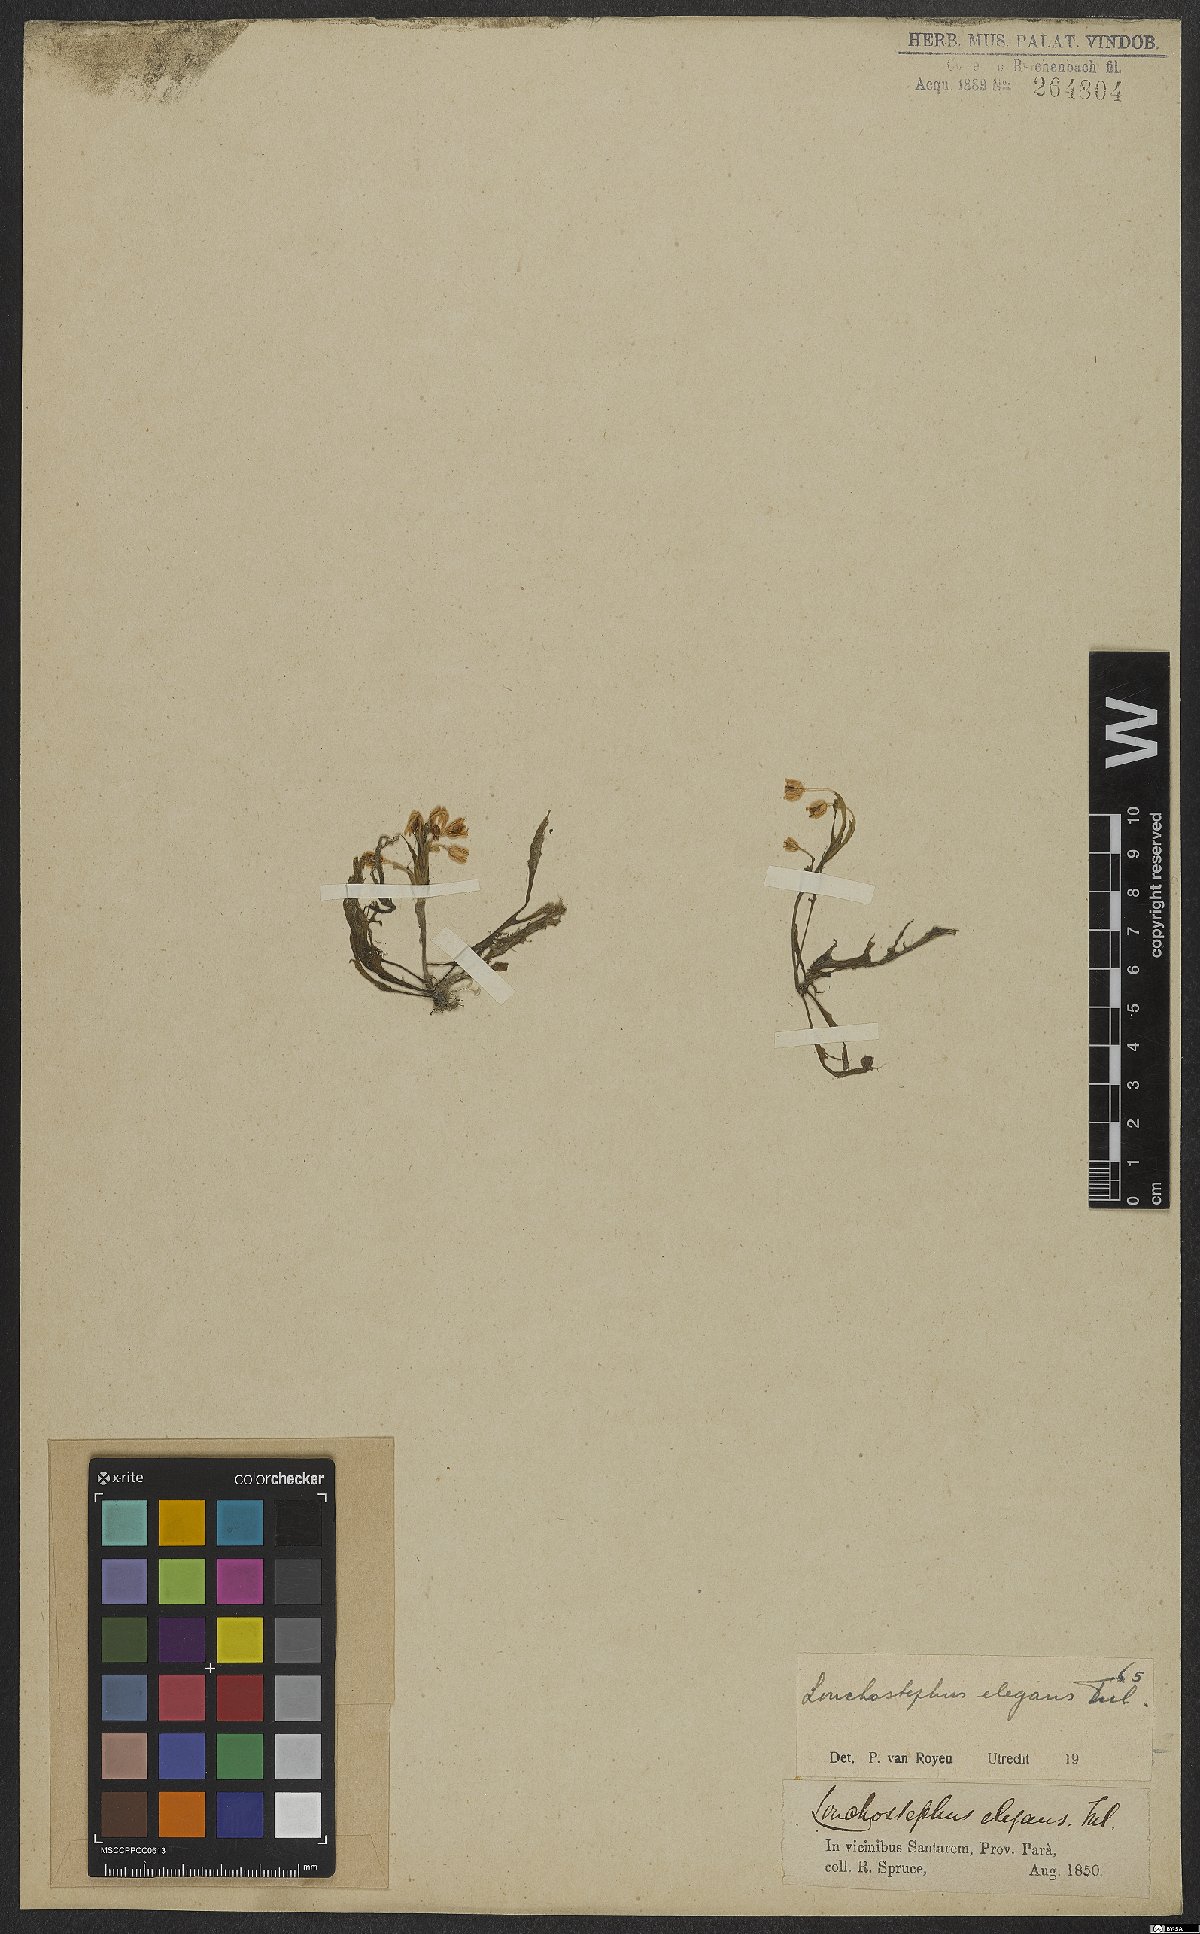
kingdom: Plantae
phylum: Tracheophyta
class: Magnoliopsida
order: Malpighiales
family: Podostemaceae
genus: Lonchostephus
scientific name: Lonchostephus elegans
